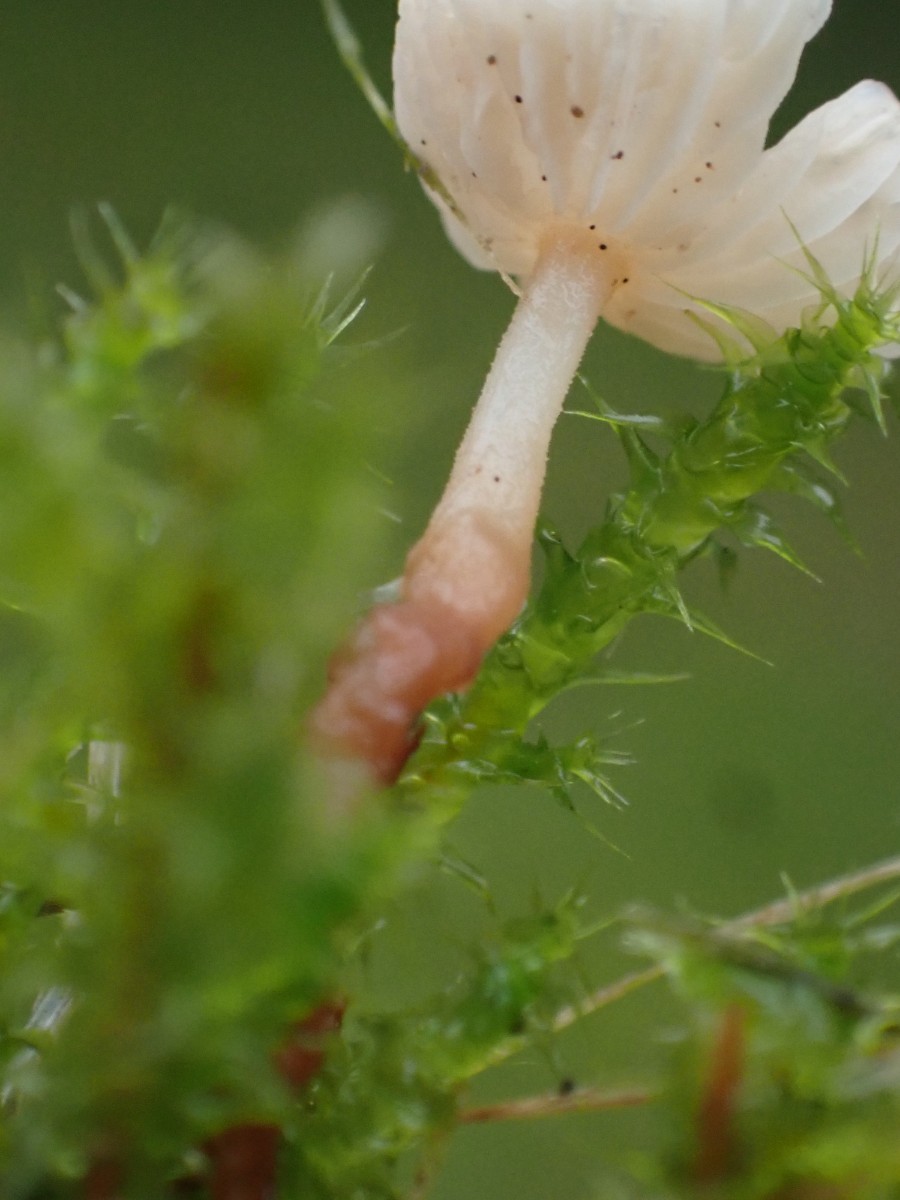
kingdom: Fungi
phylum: Basidiomycota
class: Agaricomycetes
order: Agaricales
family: Omphalotaceae
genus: Collybiopsis
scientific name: Collybiopsis vaillantii
